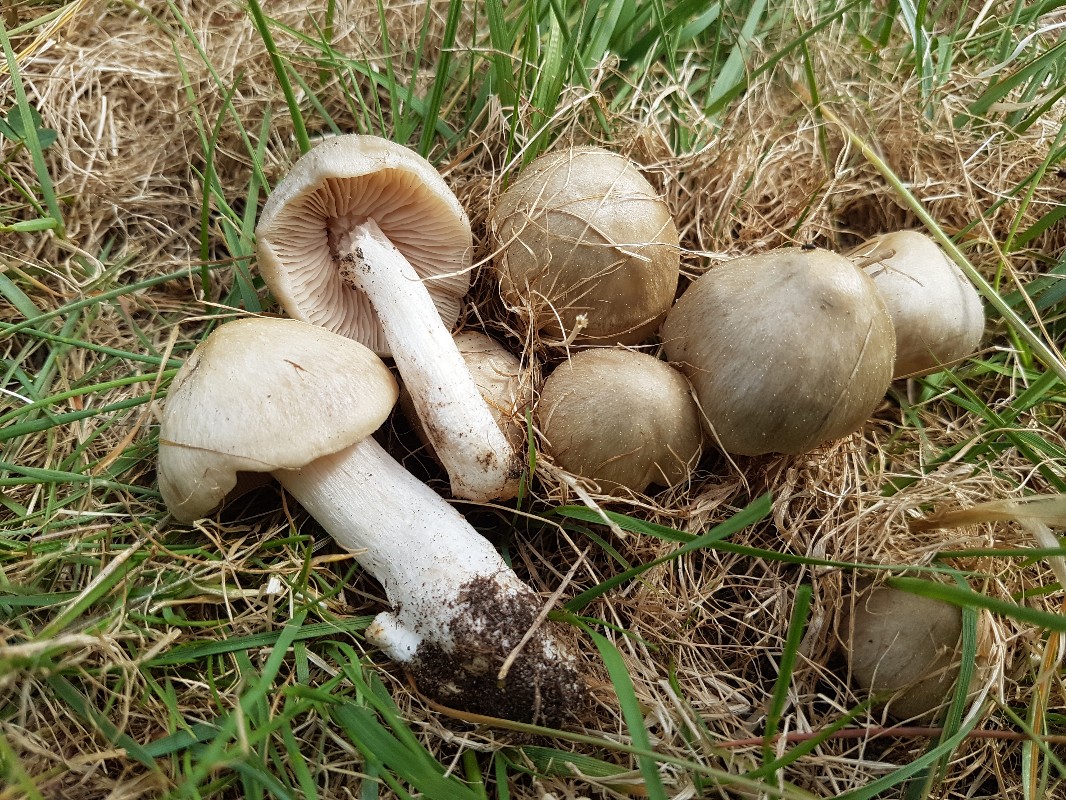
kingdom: Fungi
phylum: Basidiomycota
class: Agaricomycetes
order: Agaricales
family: Entolomataceae
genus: Entoloma
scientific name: Entoloma clypeatum
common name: flammet rødblad
